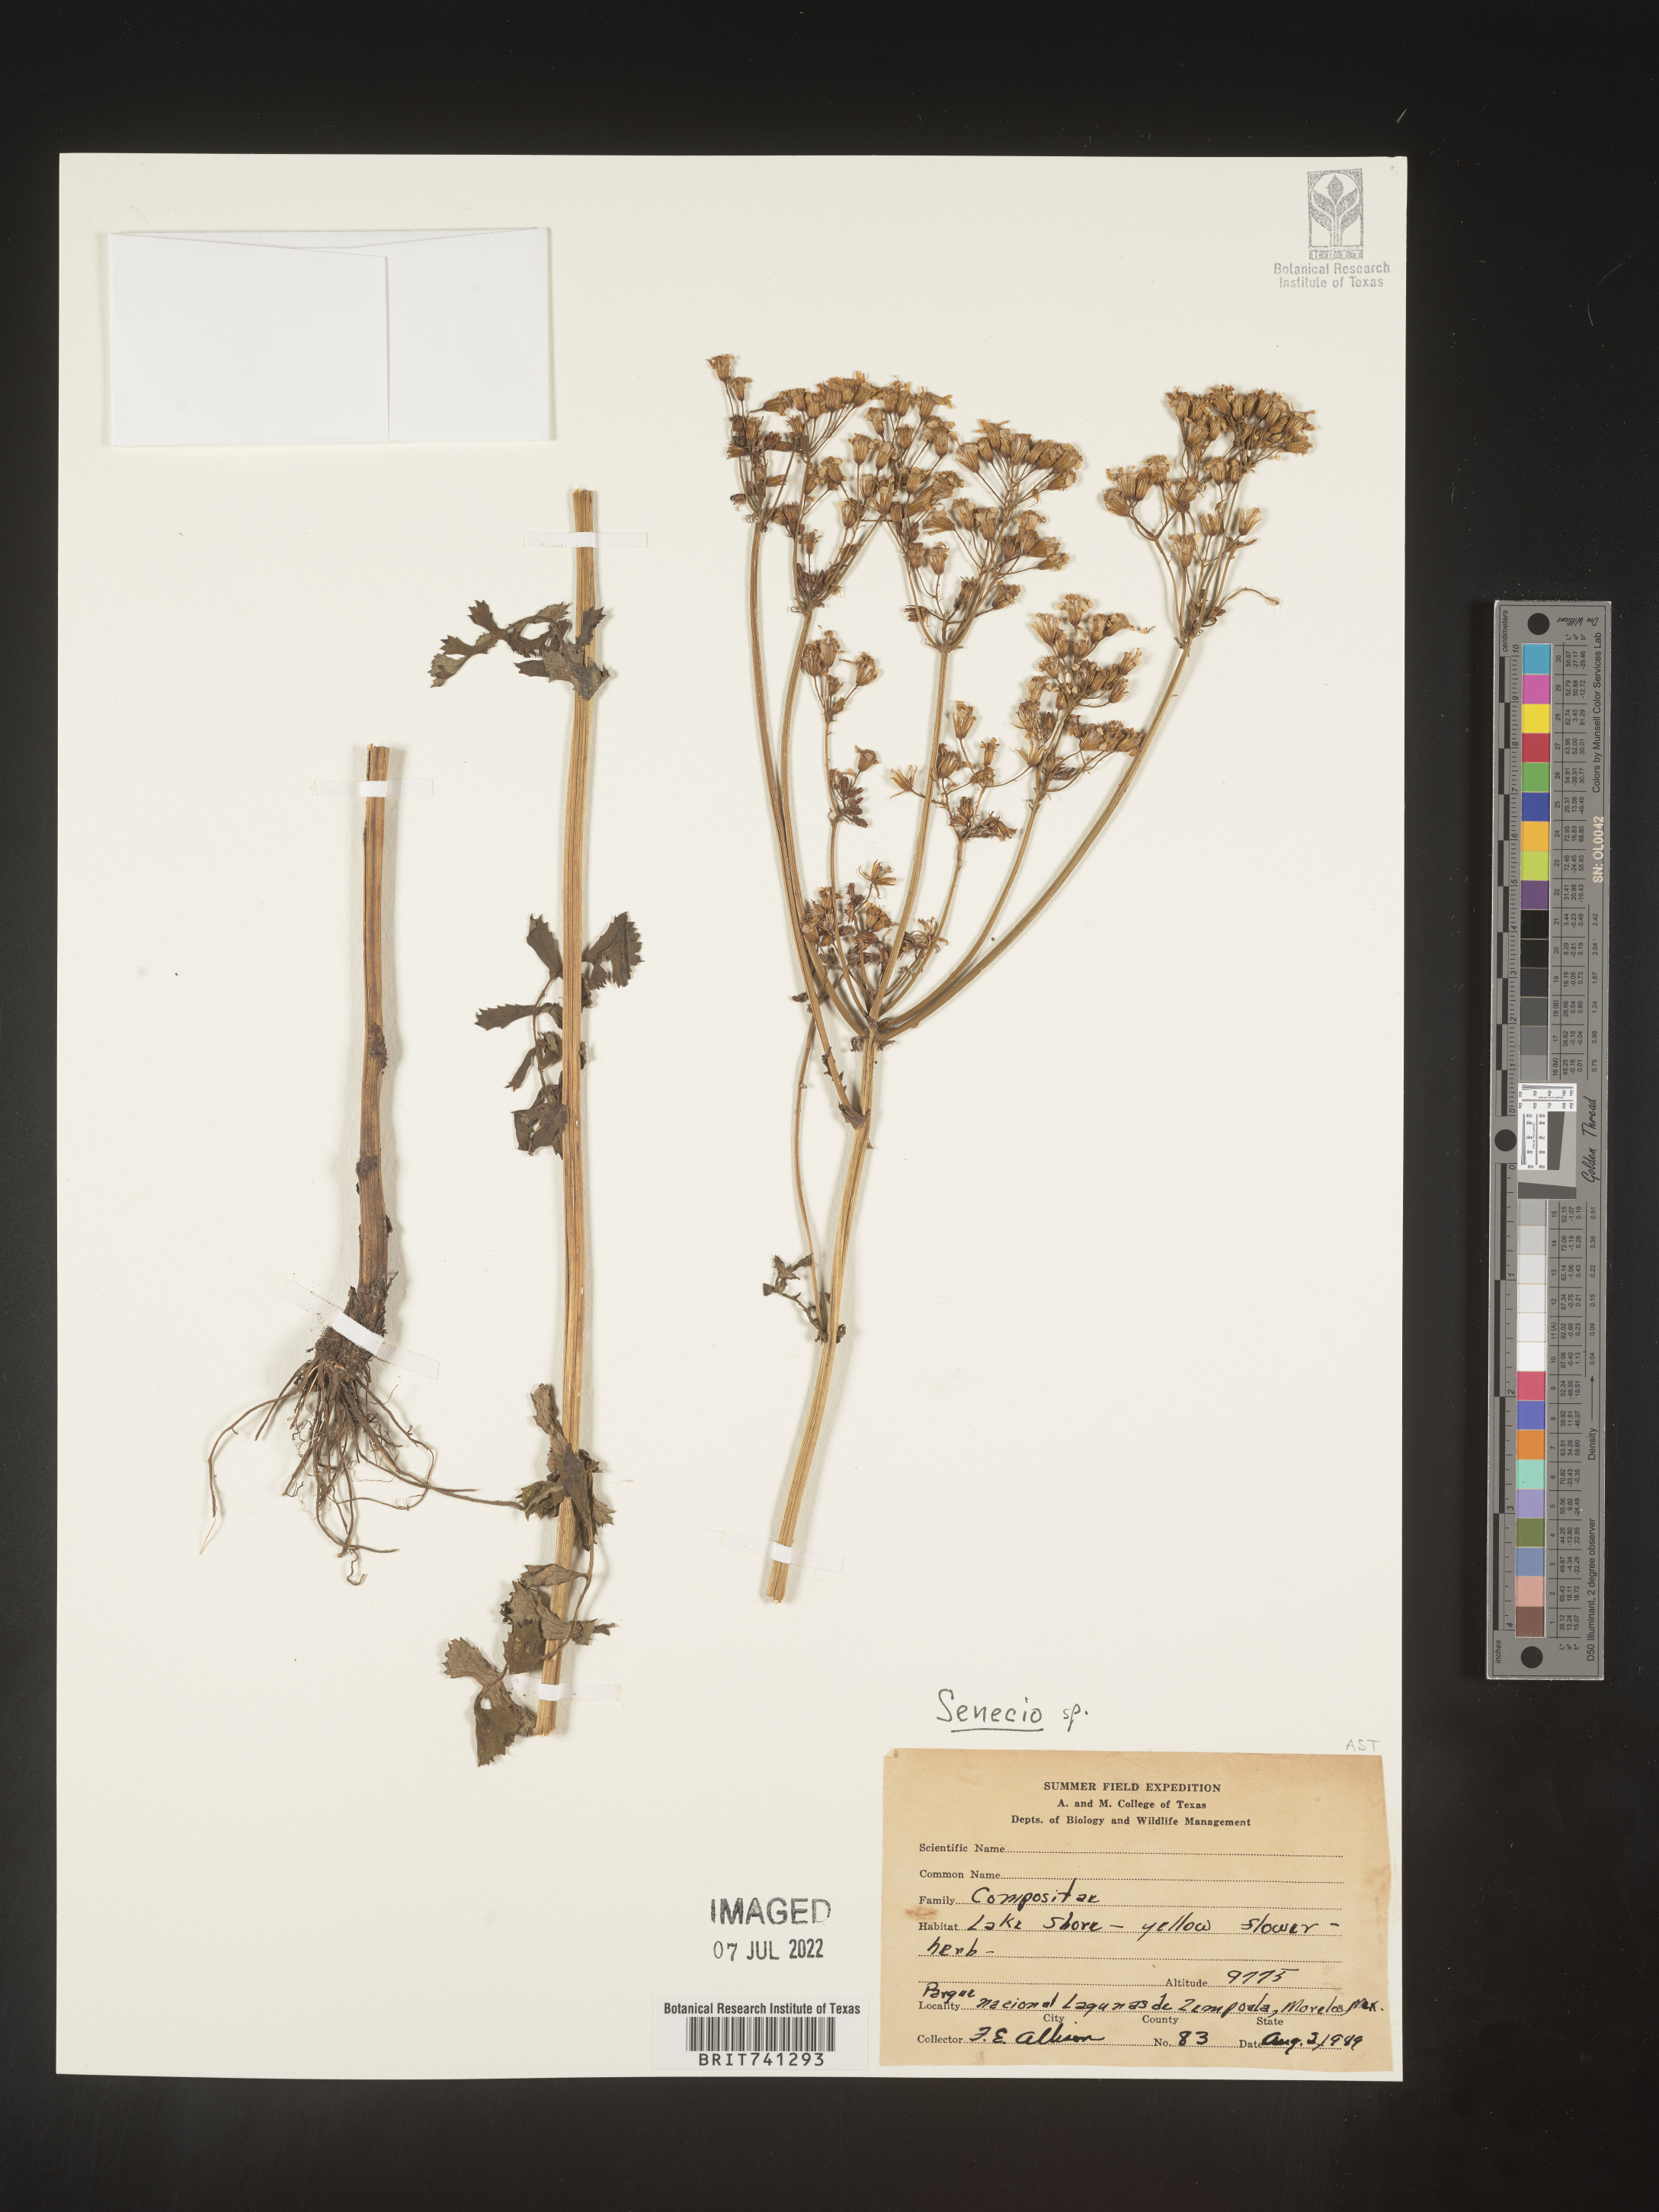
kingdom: Plantae
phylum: Tracheophyta
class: Magnoliopsida
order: Asterales
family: Asteraceae
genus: Senecio
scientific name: Senecio
